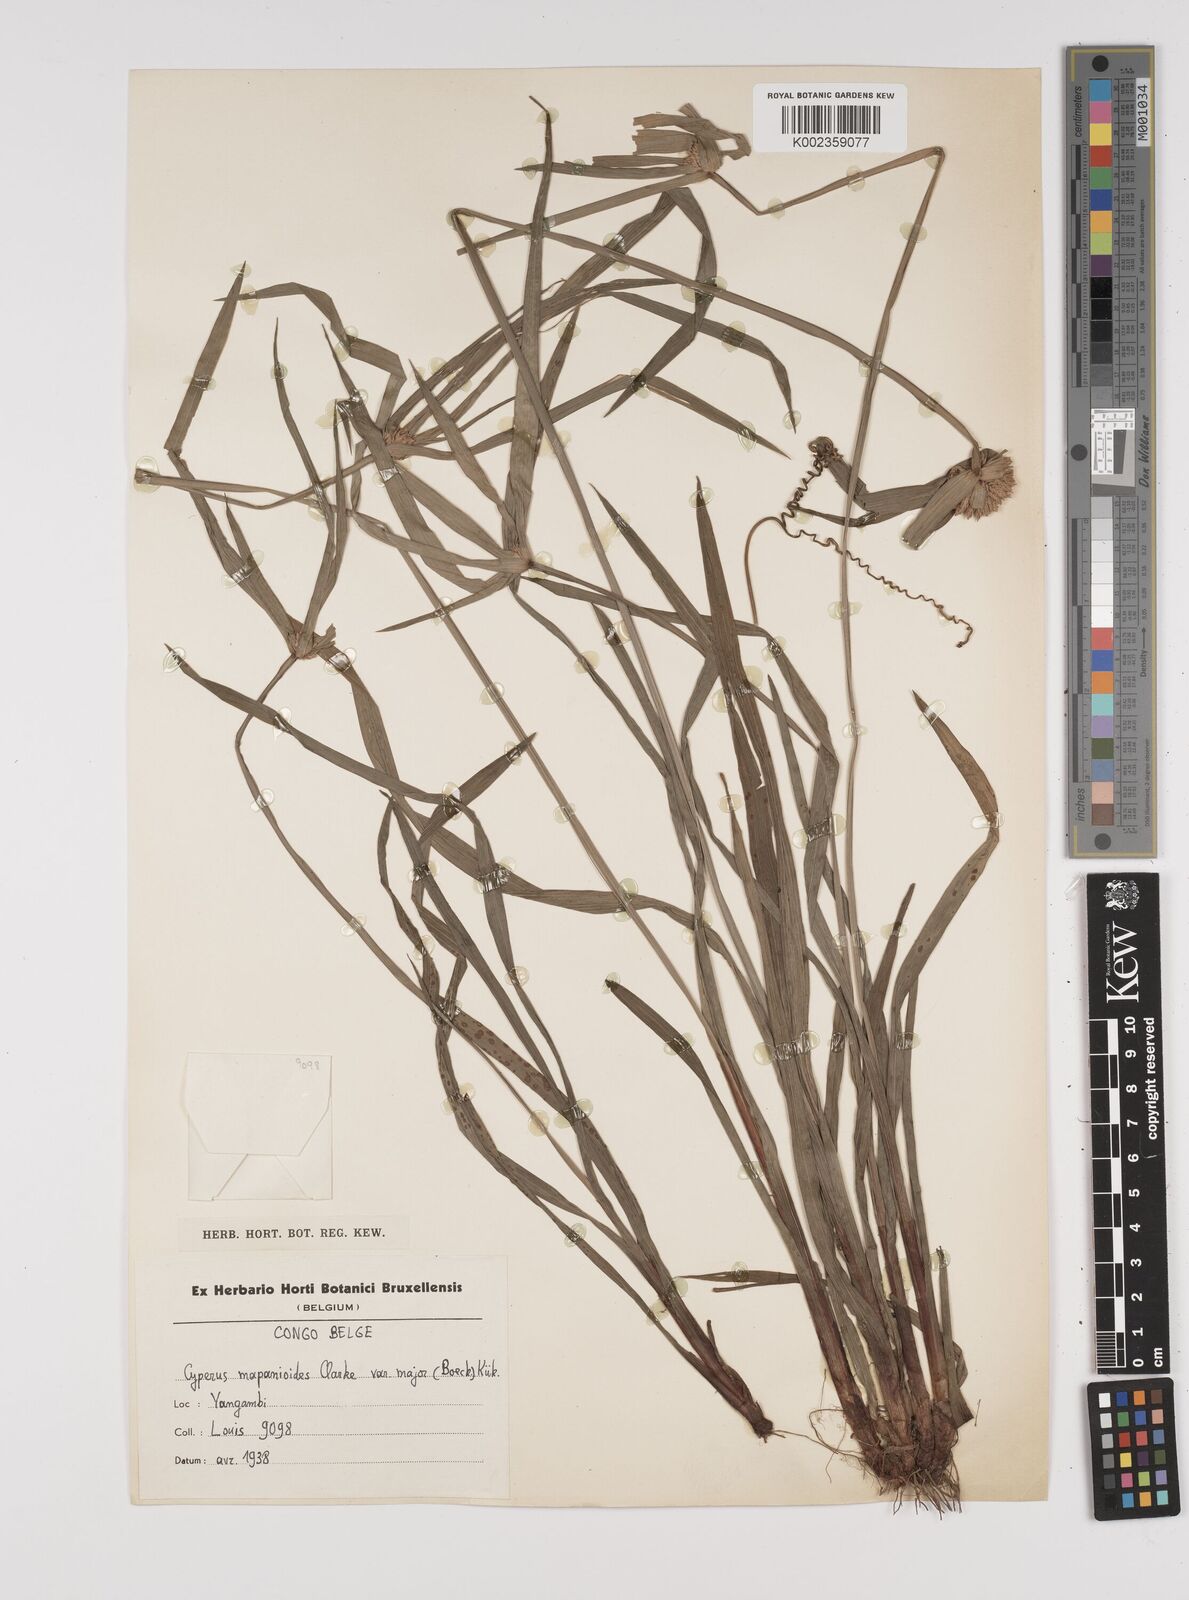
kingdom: Plantae
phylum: Tracheophyta
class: Liliopsida
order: Poales
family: Cyperaceae
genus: Cyperus
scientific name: Cyperus mapanioides
